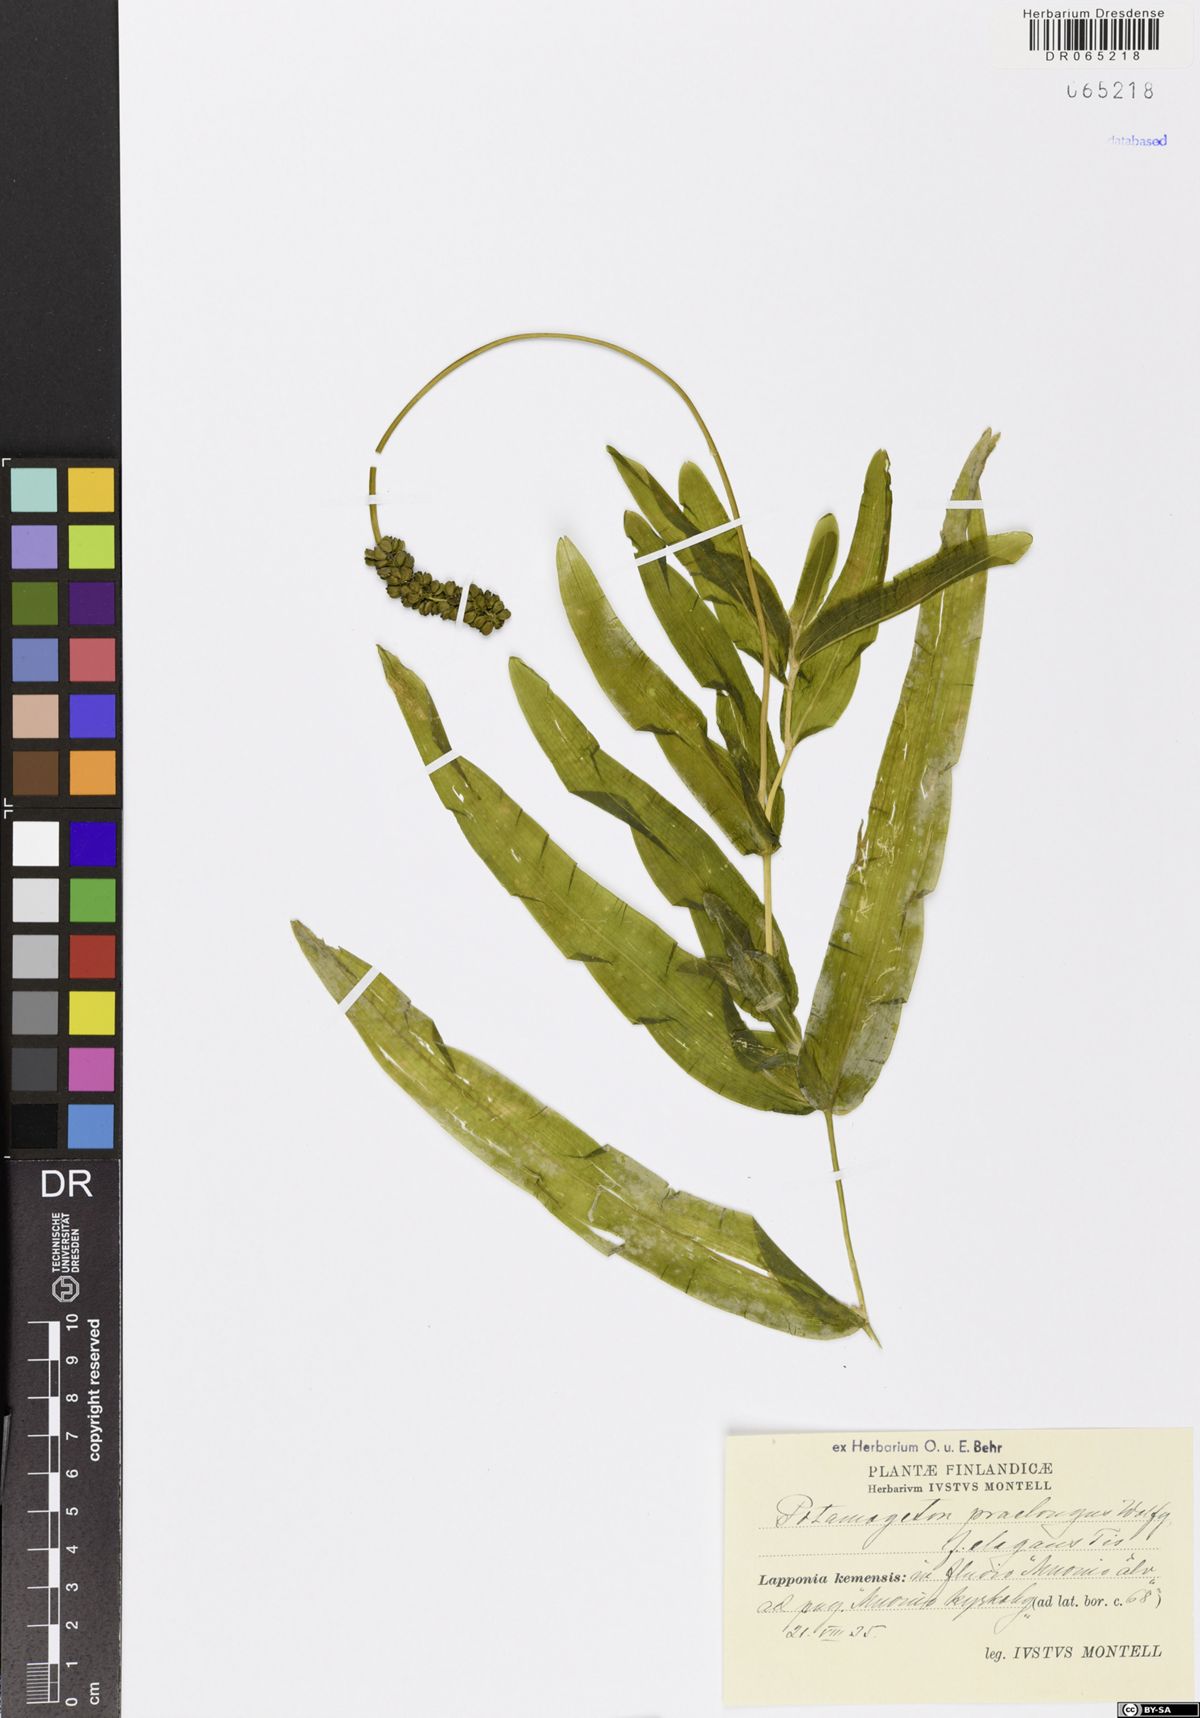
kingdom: Plantae
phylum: Tracheophyta
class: Liliopsida
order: Alismatales
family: Potamogetonaceae
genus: Potamogeton
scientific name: Potamogeton praelongus
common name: Long-stalked pondweed
